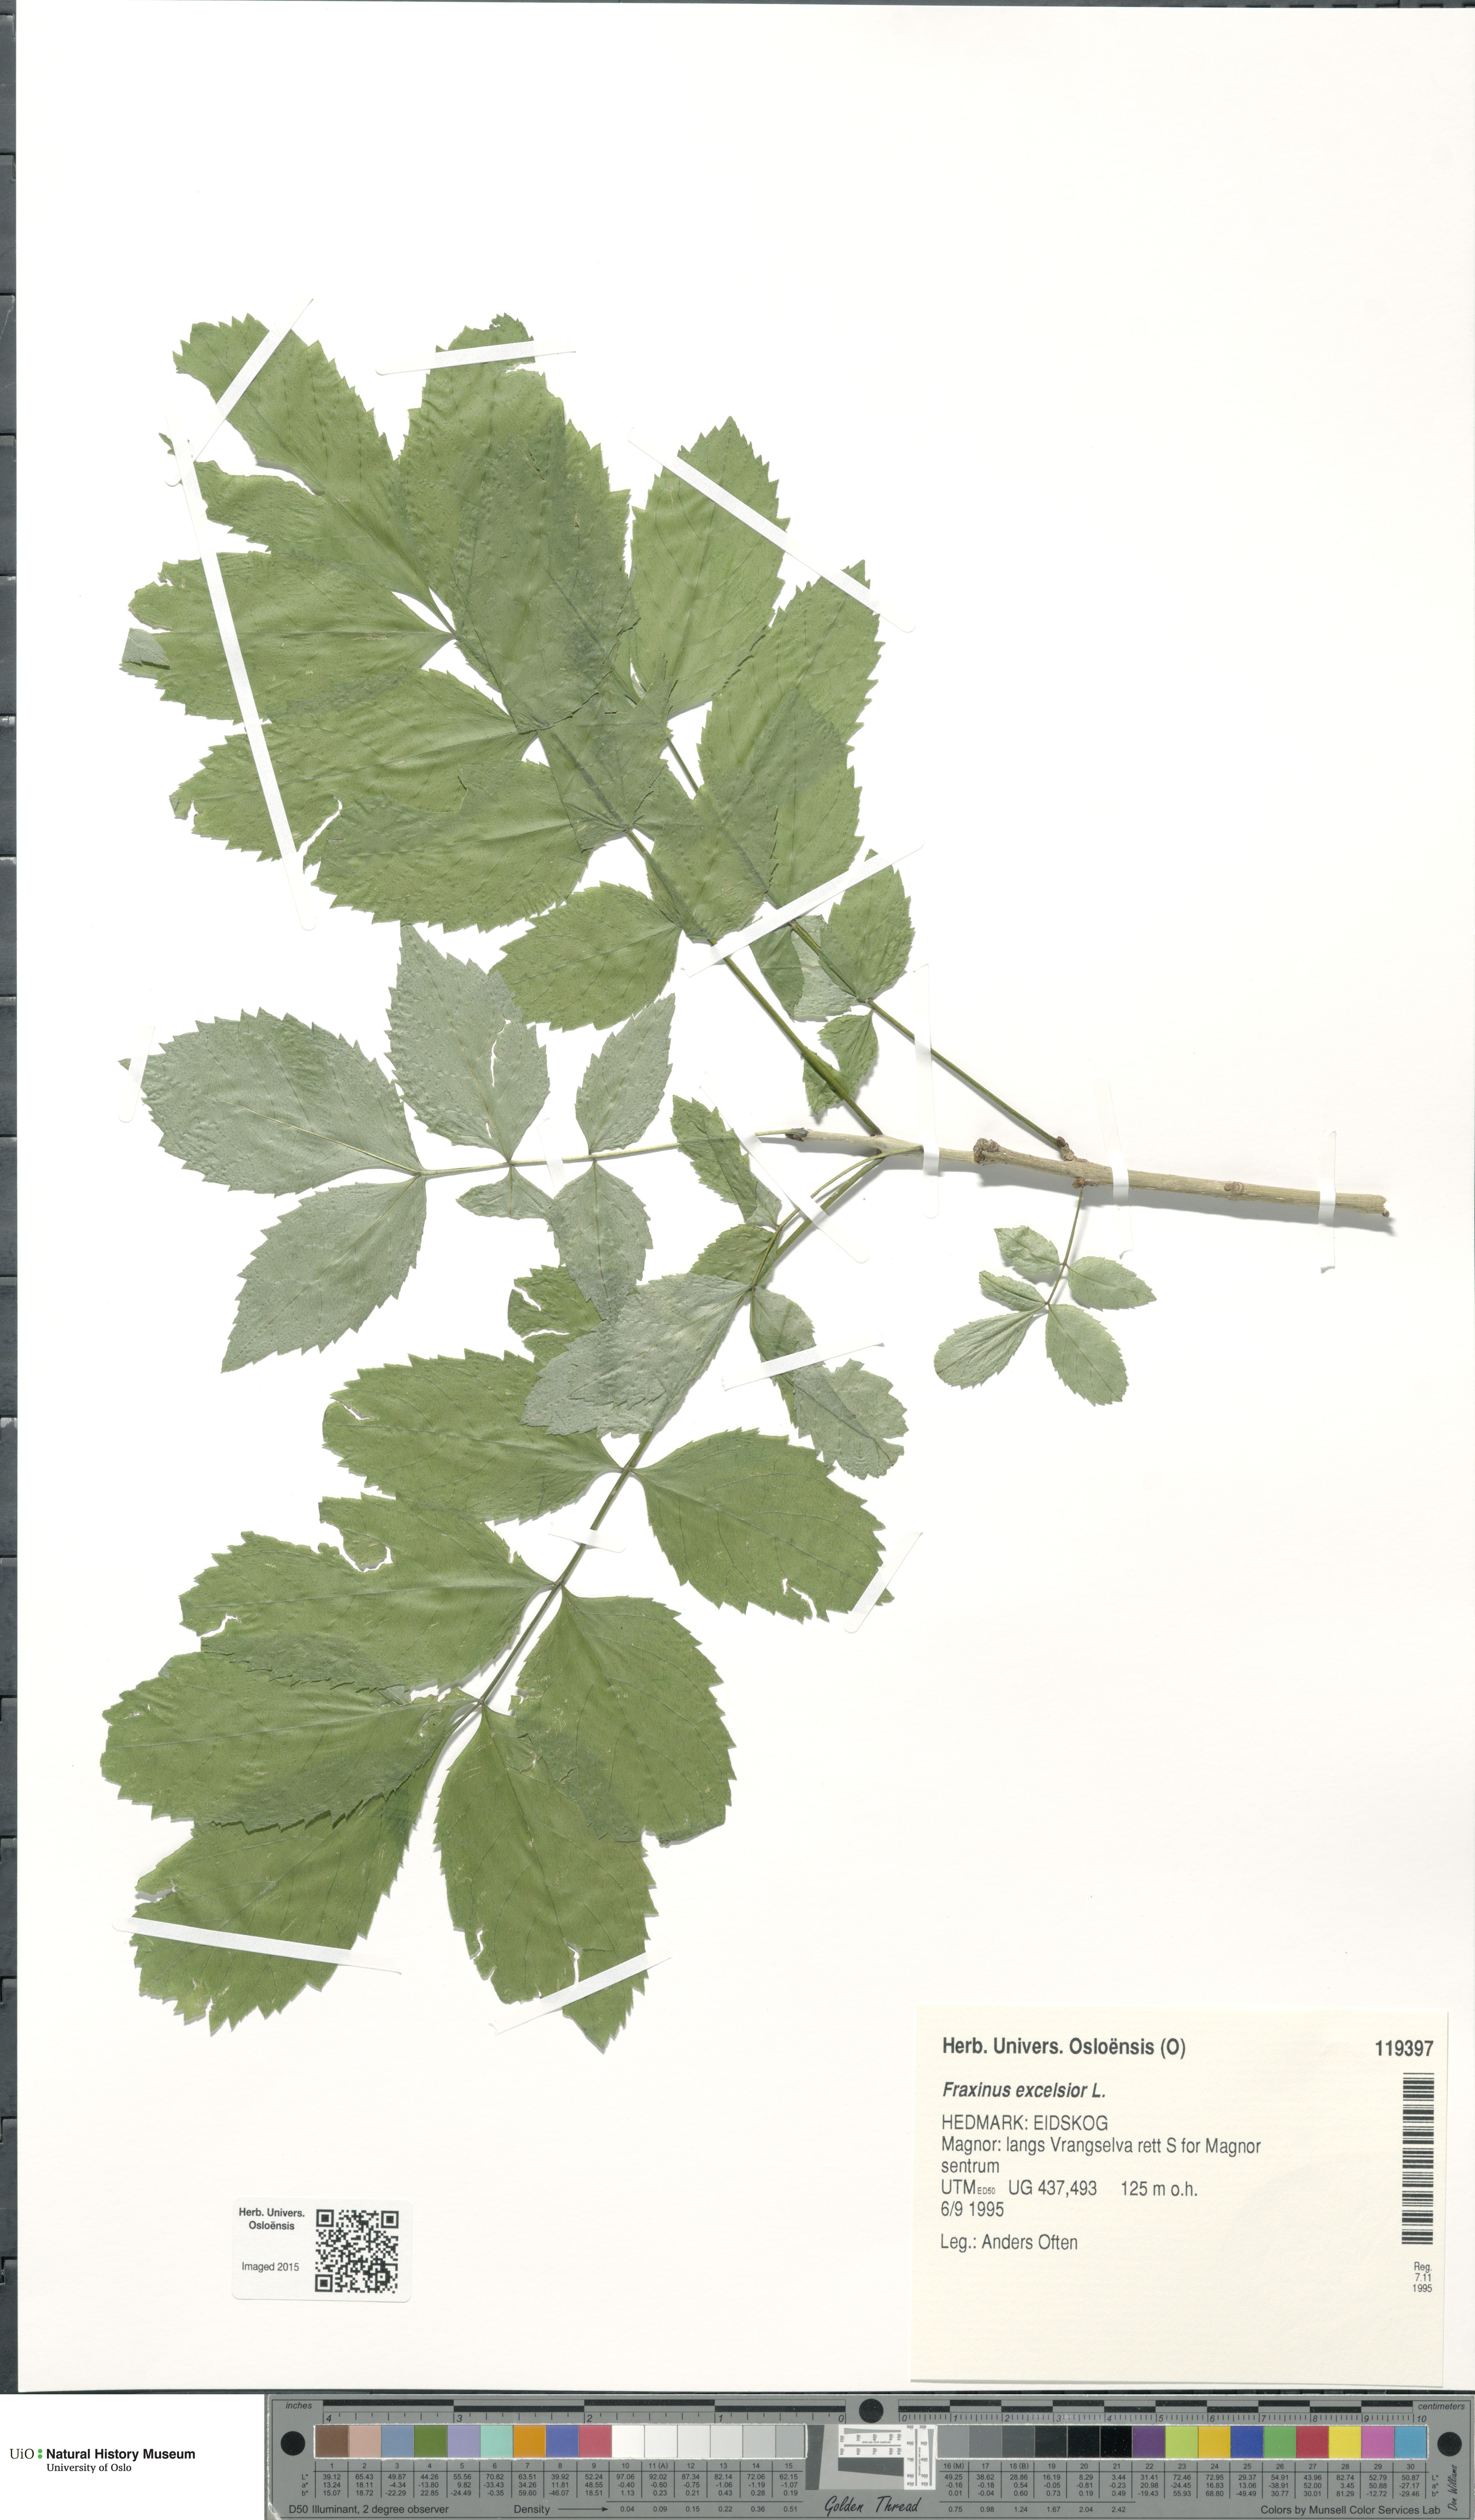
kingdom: Plantae
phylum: Tracheophyta
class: Magnoliopsida
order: Lamiales
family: Oleaceae
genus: Fraxinus
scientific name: Fraxinus excelsior
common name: European ash
